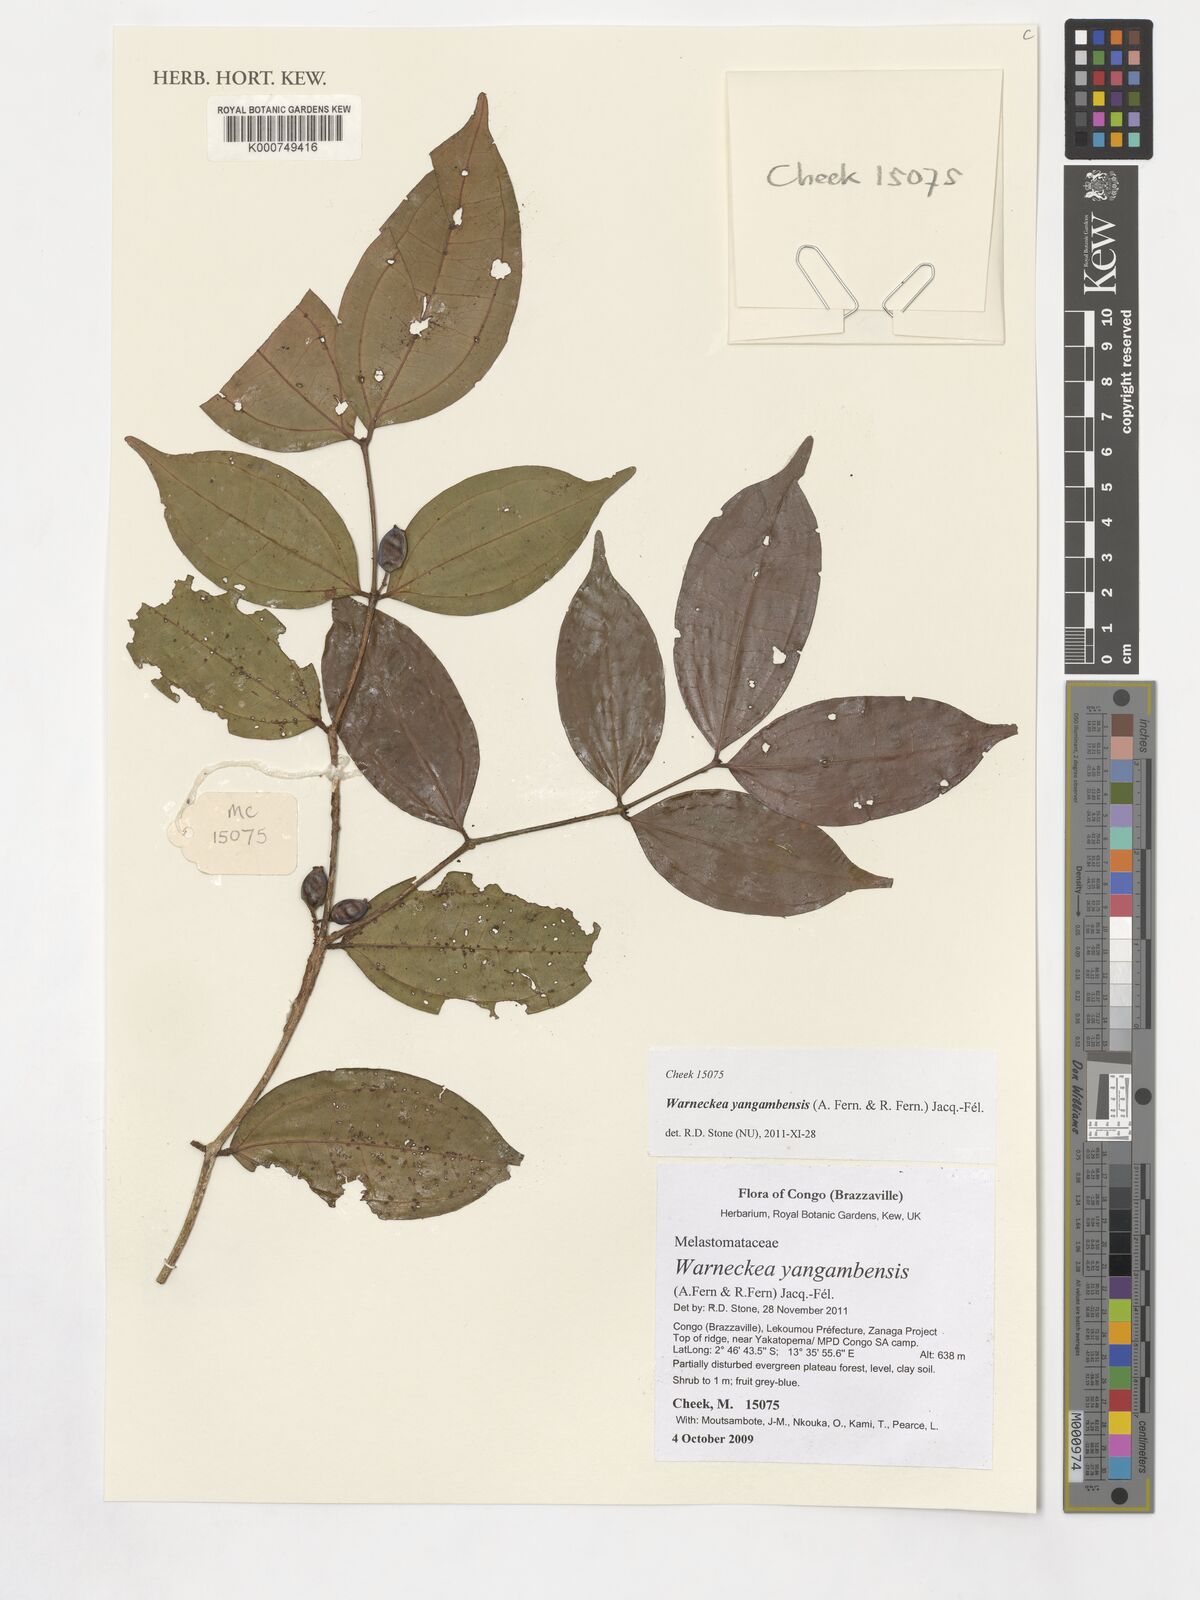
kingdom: Plantae
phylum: Tracheophyta
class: Magnoliopsida
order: Myrtales
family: Melastomataceae
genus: Warneckea
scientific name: Warneckea yangambensis
